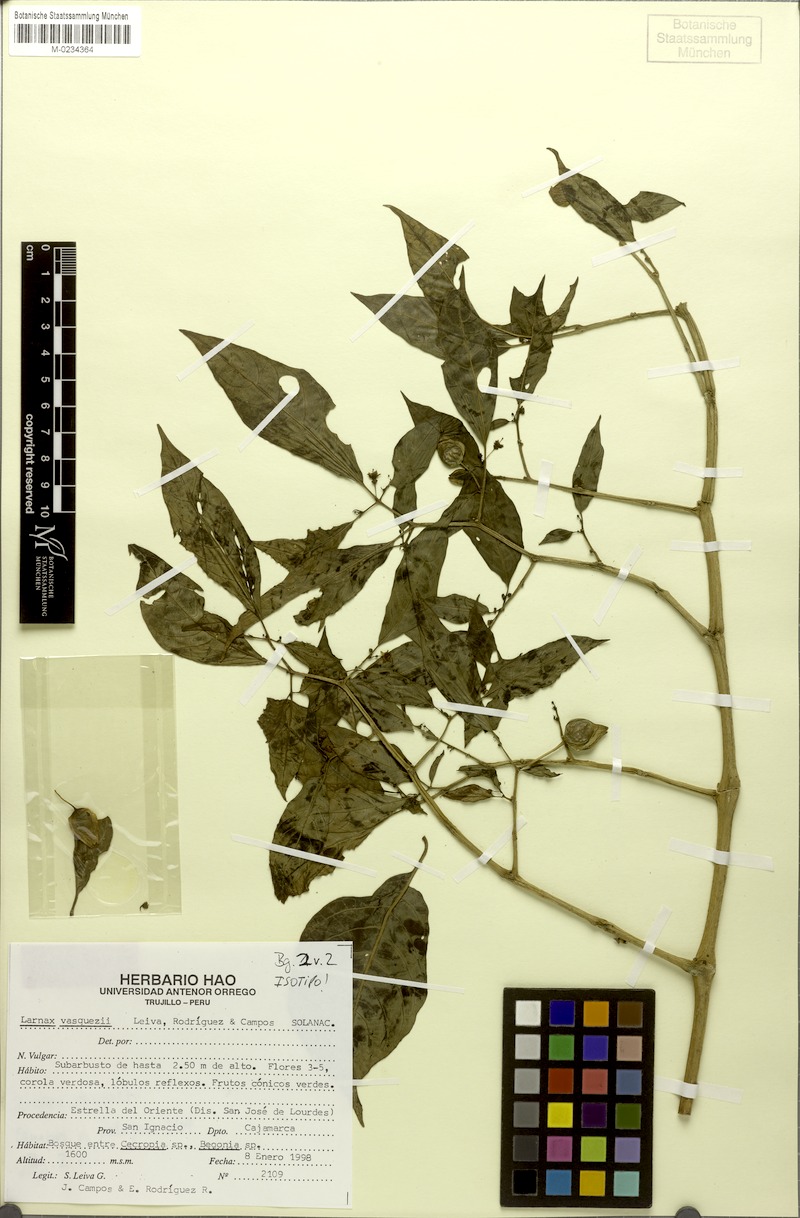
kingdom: Plantae
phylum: Tracheophyta
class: Magnoliopsida
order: Solanales
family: Solanaceae
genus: Deprea
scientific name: Deprea vasquezii
